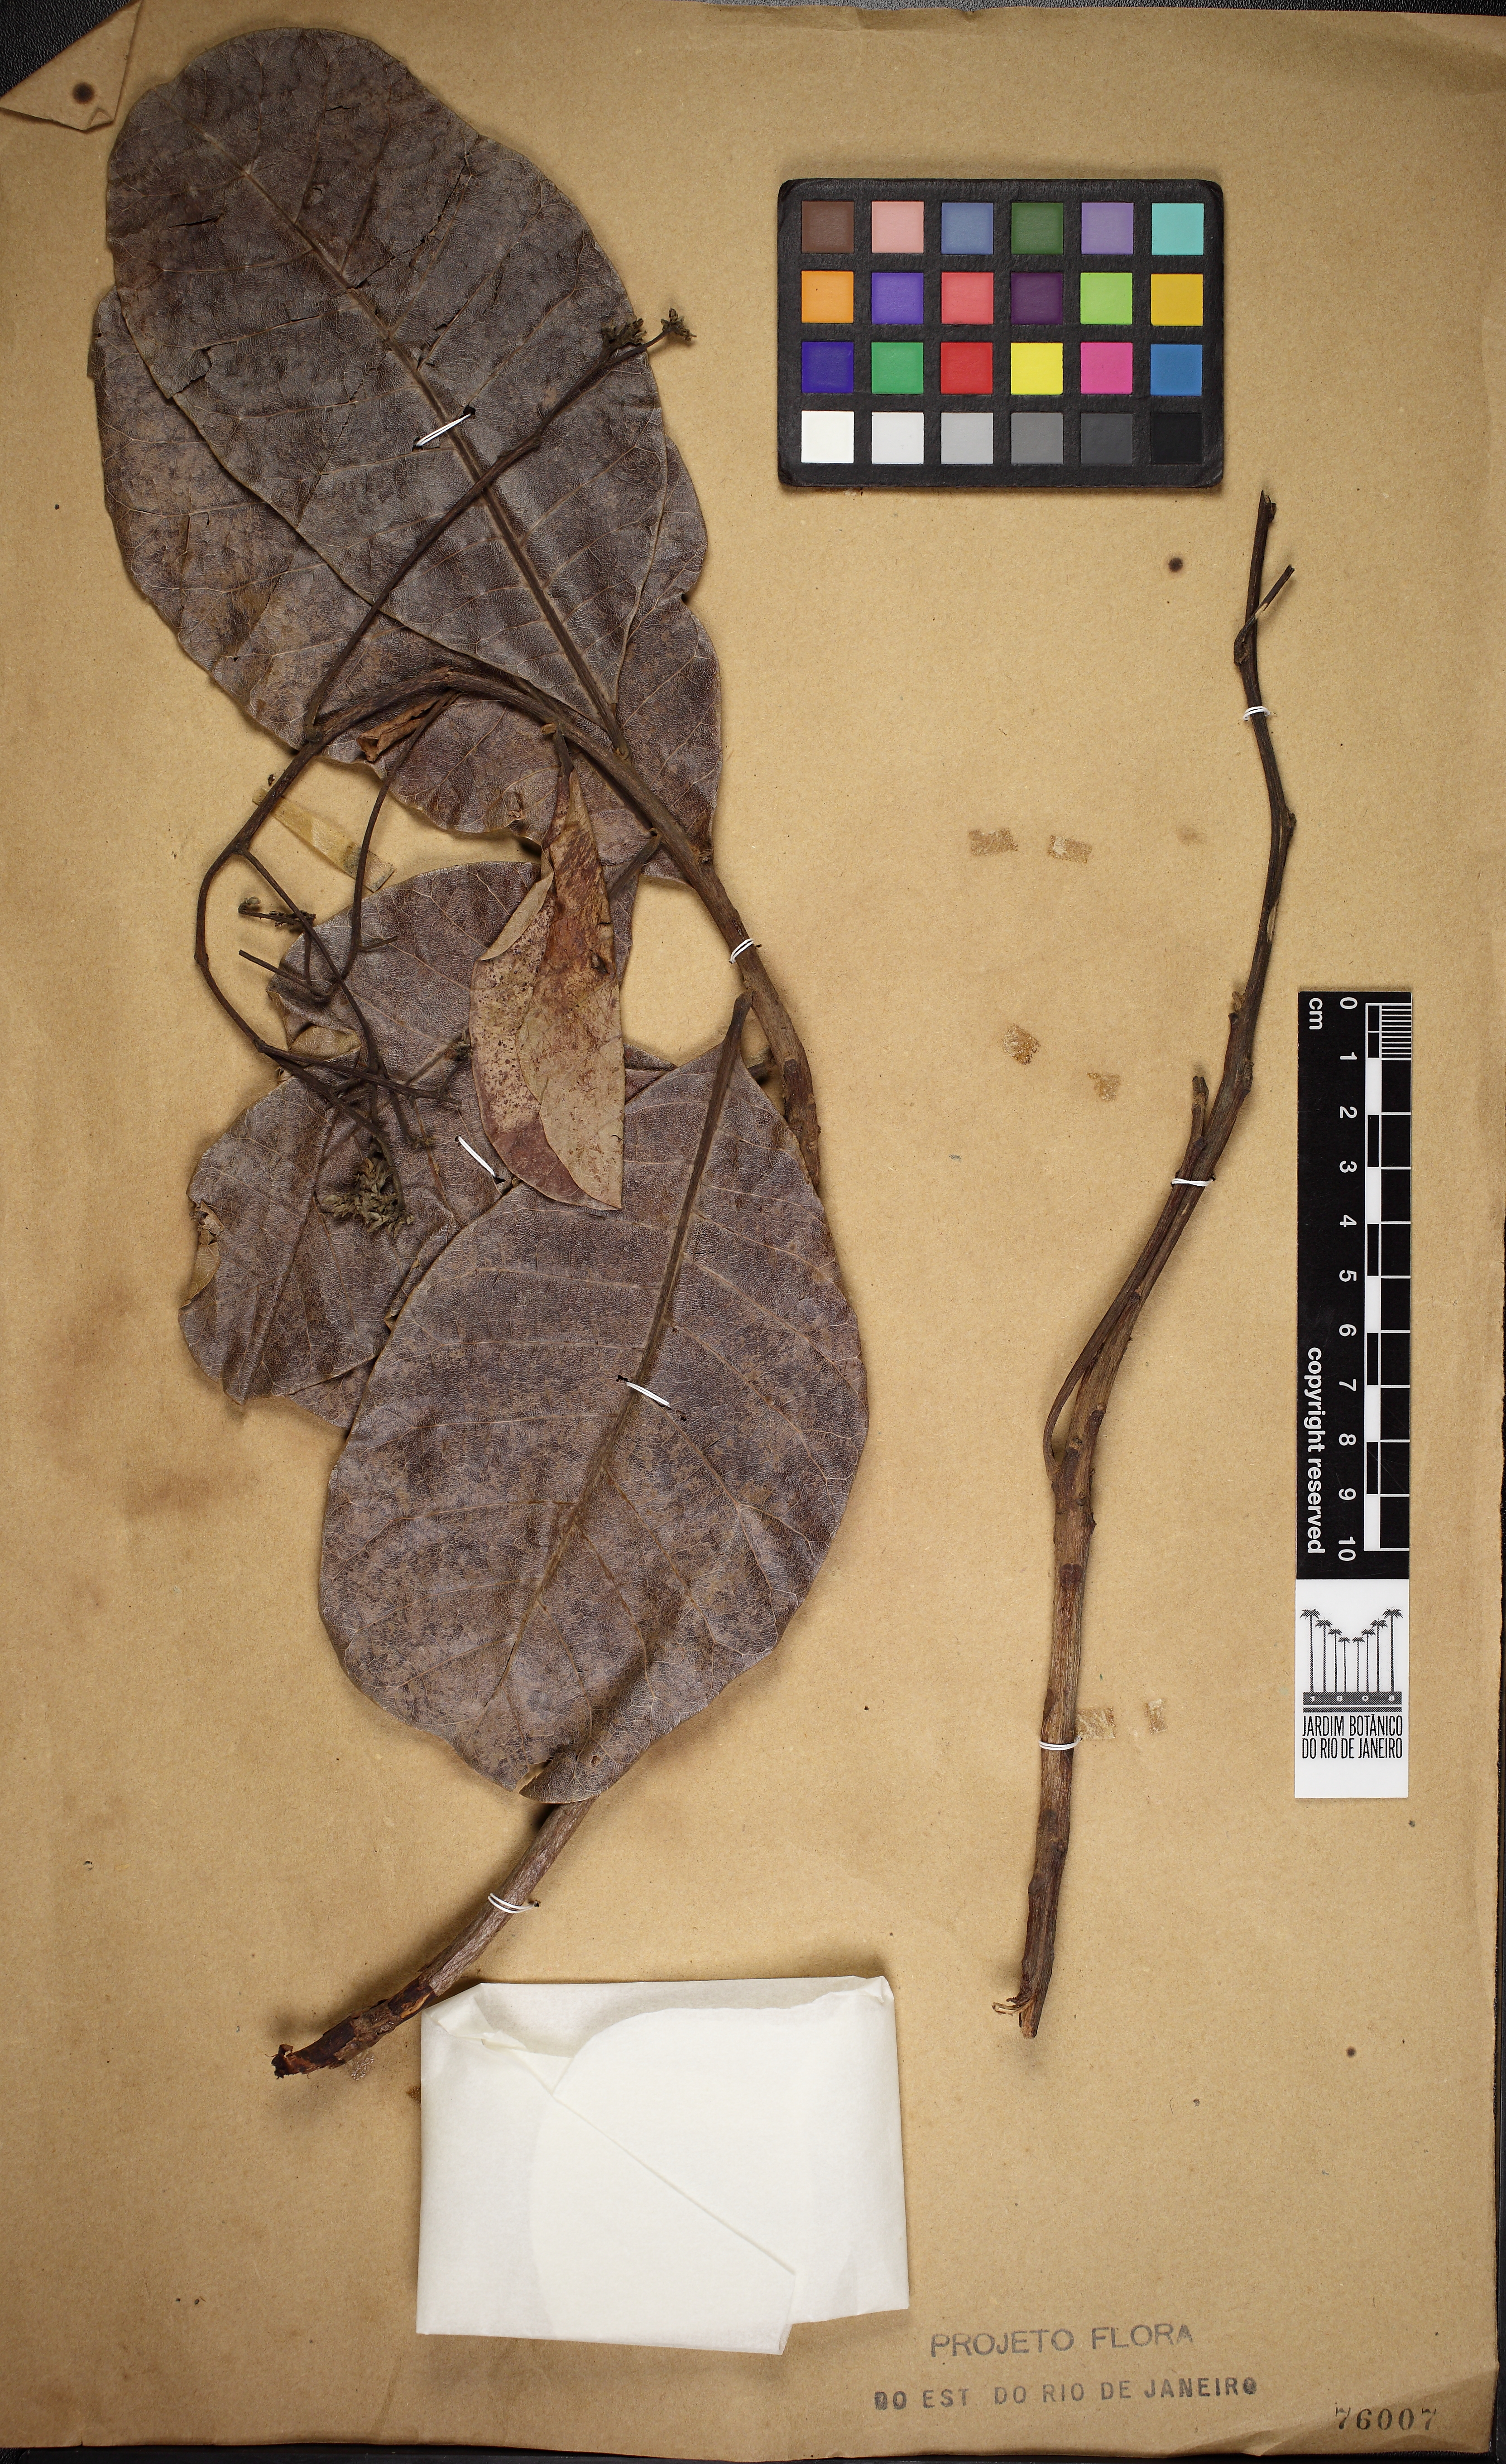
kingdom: Plantae
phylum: Tracheophyta
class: Magnoliopsida
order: Sapindales
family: Anacardiaceae
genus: Anacardium
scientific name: Anacardium occidentale
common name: Cashew
